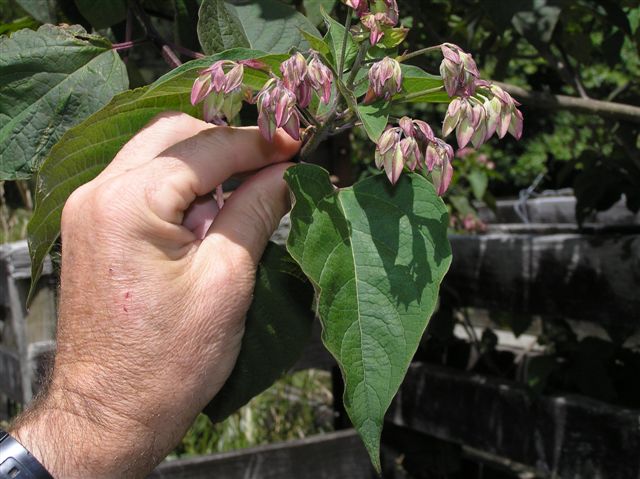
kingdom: Plantae
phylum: Tracheophyta
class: Magnoliopsida
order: Lamiales
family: Lamiaceae
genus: Clerodendrum
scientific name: Clerodendrum trichotomum
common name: Harlequin glorybower
